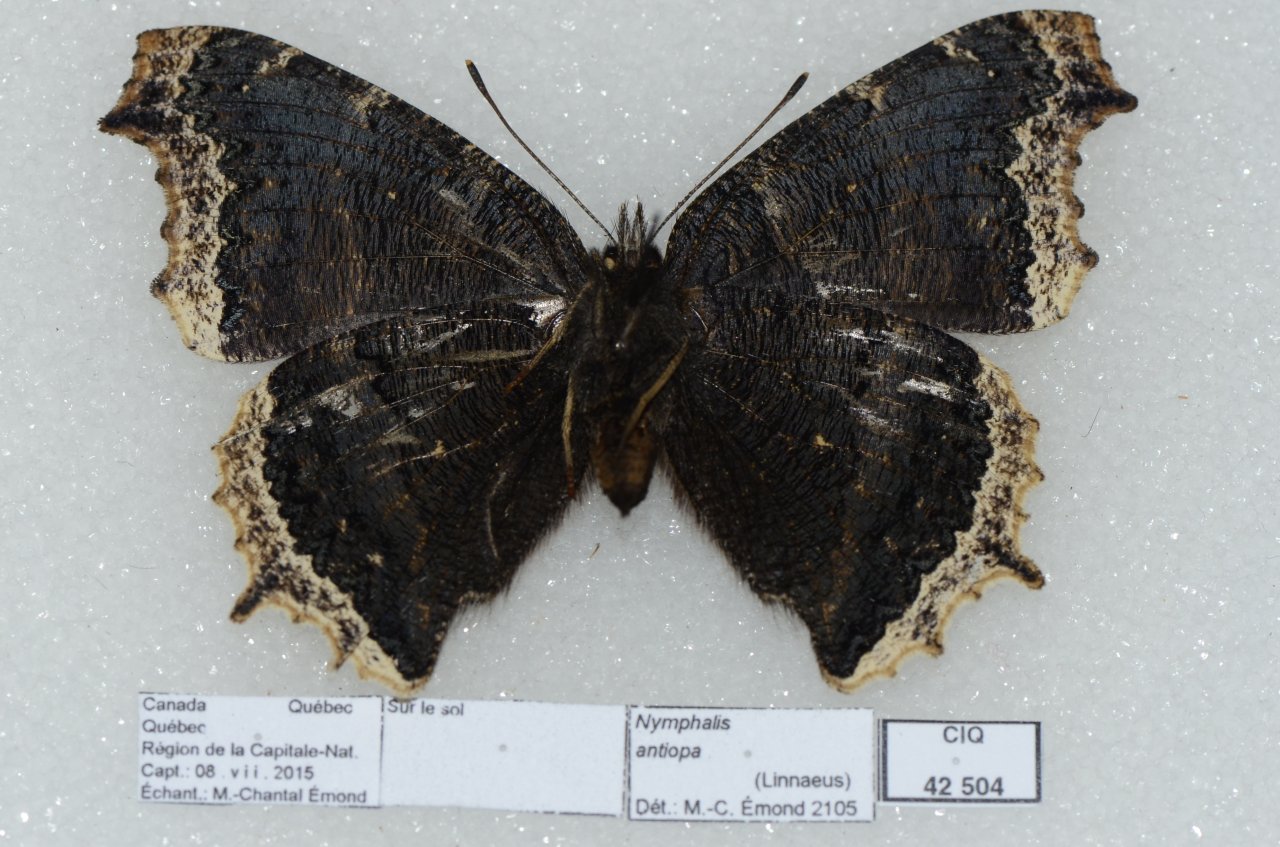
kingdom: Animalia
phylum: Arthropoda
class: Insecta
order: Lepidoptera
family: Nymphalidae
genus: Nymphalis
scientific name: Nymphalis antiopa
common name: Mourning Cloak
